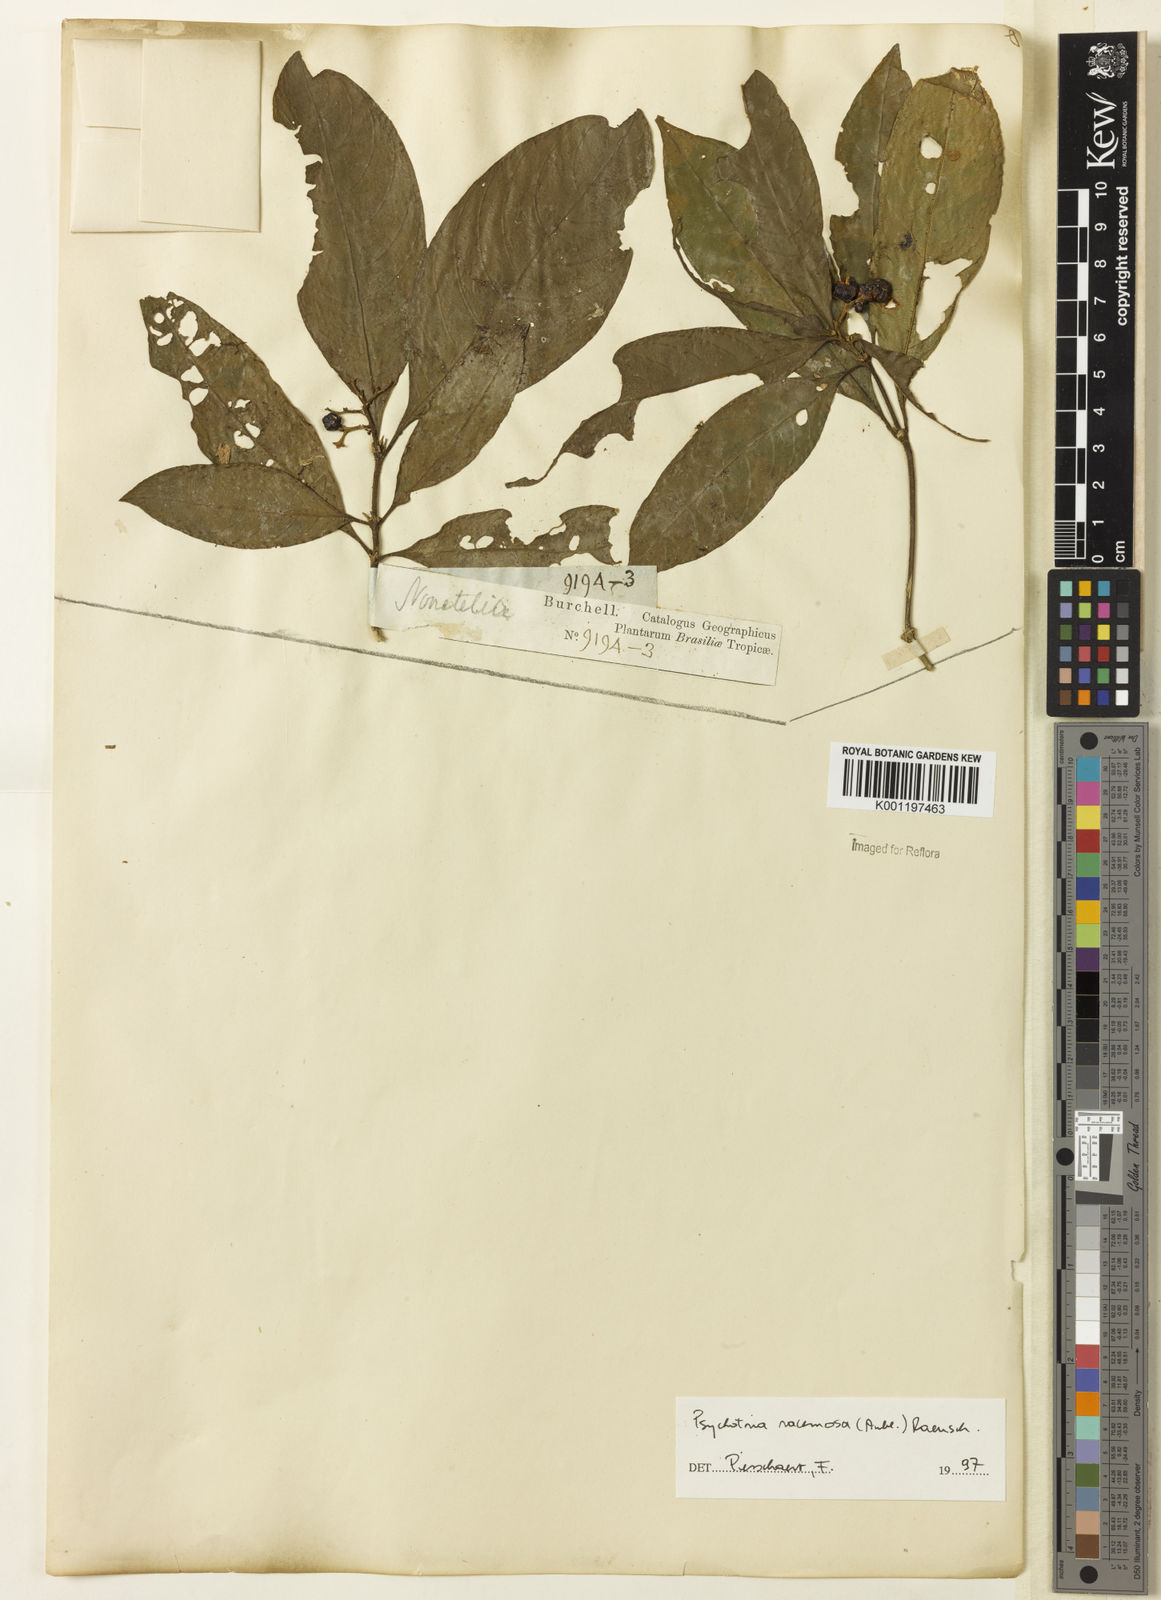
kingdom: Plantae
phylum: Tracheophyta
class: Magnoliopsida
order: Gentianales
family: Rubiaceae
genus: Palicourea
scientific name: Palicourea racemosa
